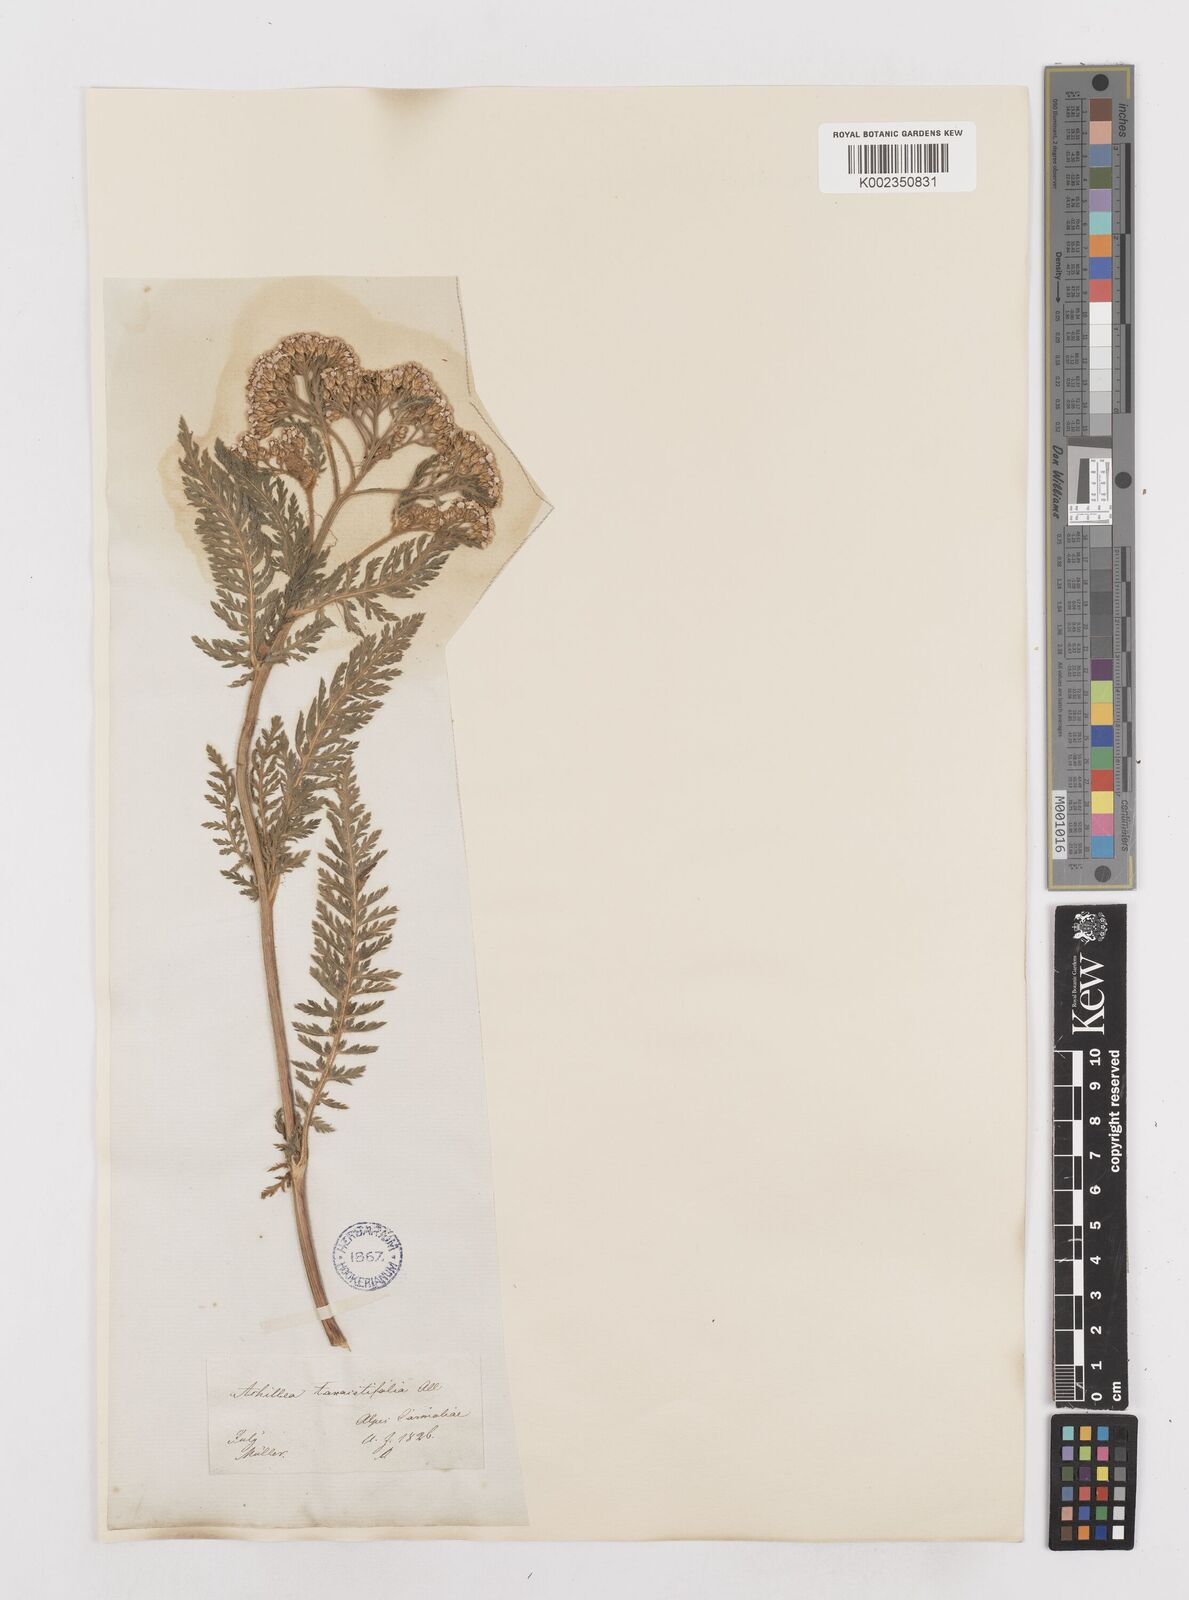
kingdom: Plantae
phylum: Tracheophyta
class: Magnoliopsida
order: Asterales
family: Asteraceae
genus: Achillea
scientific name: Achillea distans
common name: Tall yarrow
